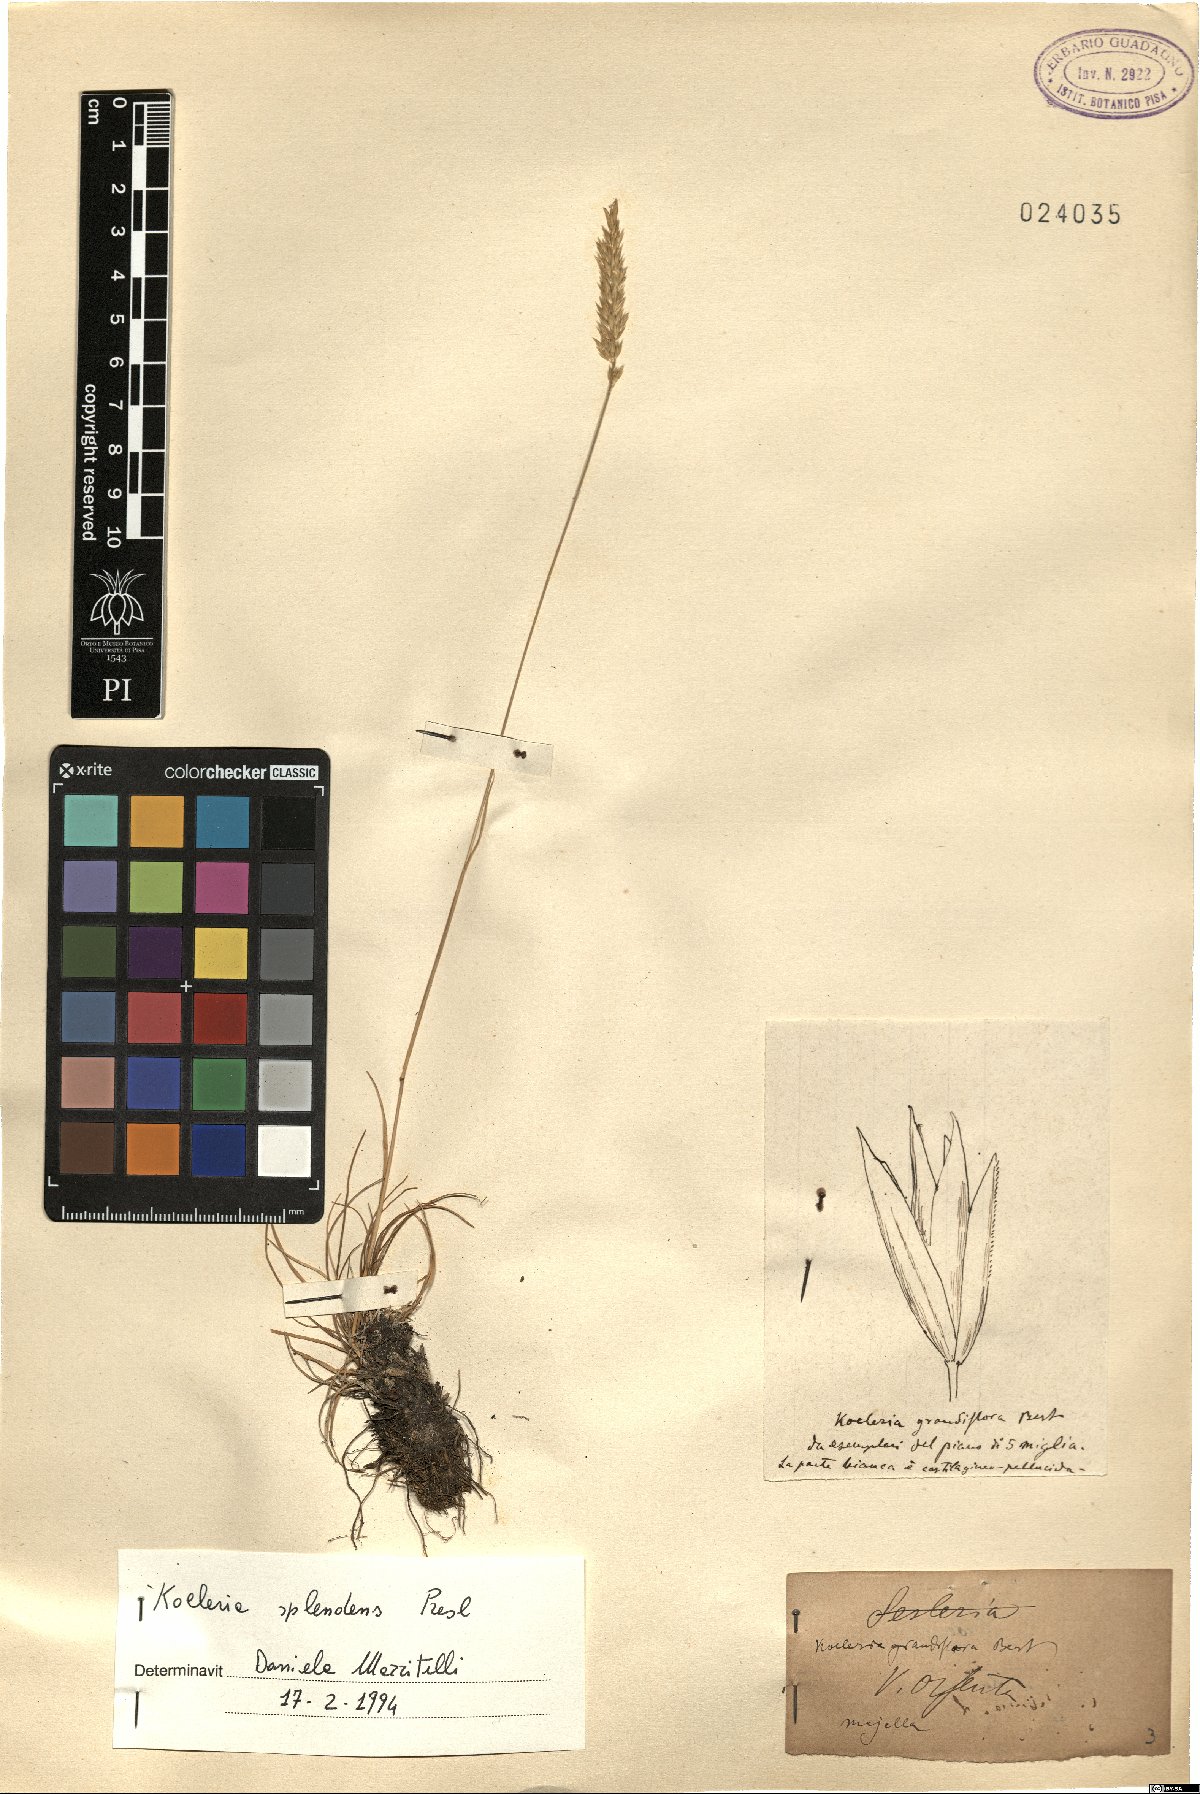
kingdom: Plantae
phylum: Tracheophyta
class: Liliopsida
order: Poales
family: Poaceae
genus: Koeleria
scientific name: Koeleria splendens
